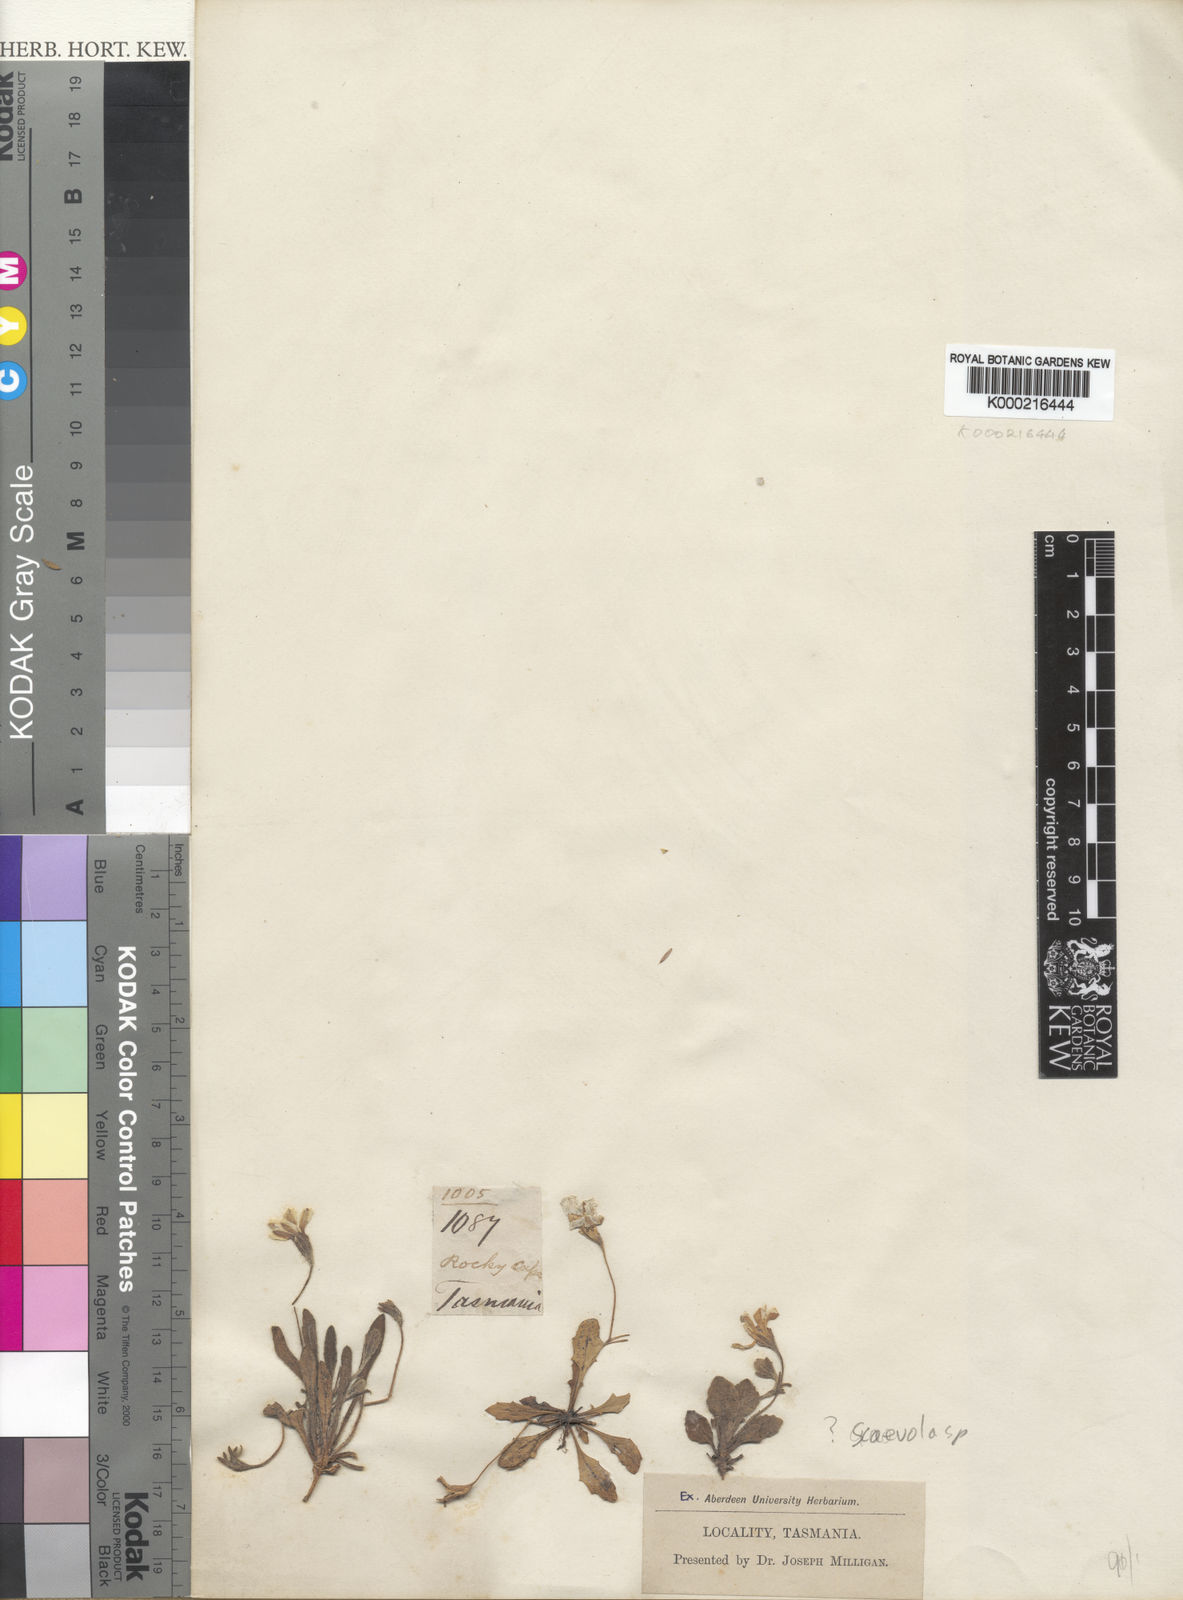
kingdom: Plantae
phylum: Tracheophyta
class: Magnoliopsida
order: Asterales
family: Goodeniaceae
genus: Scaevola
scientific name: Scaevola
